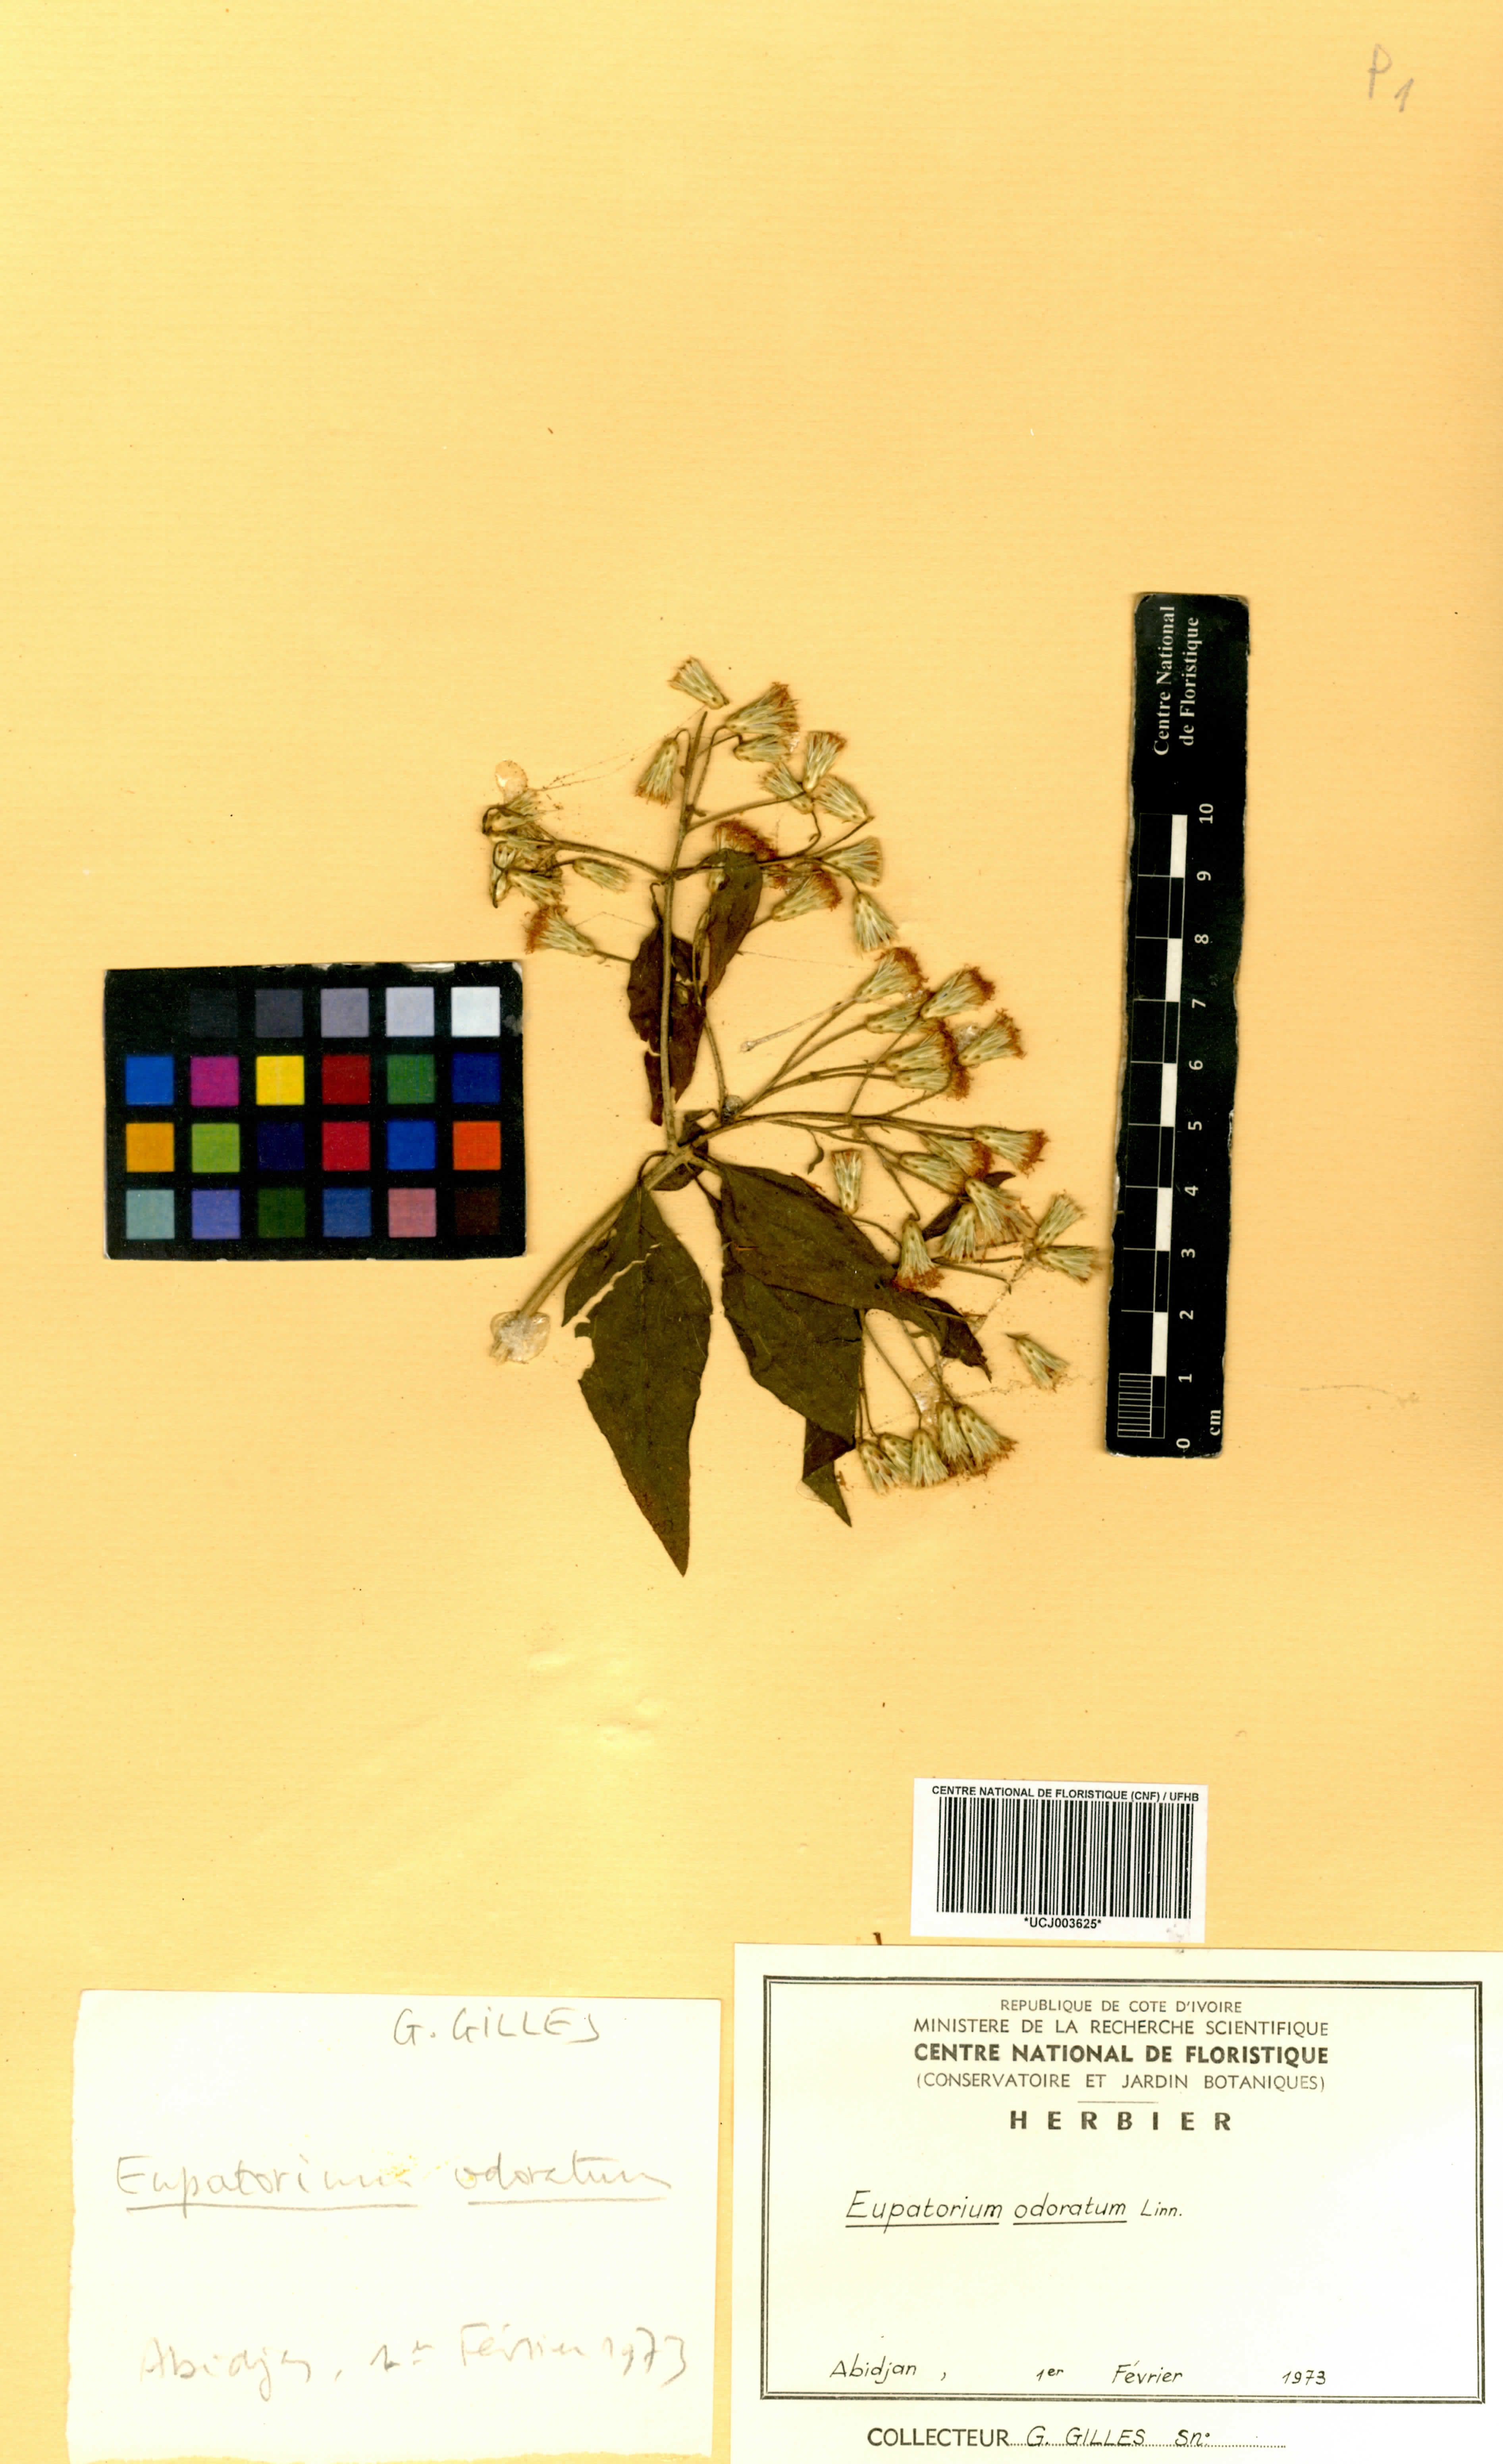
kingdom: Plantae
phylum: Tracheophyta
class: Magnoliopsida
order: Asterales
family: Asteraceae
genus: Chromolaena
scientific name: Chromolaena odorata
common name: Siamweed
